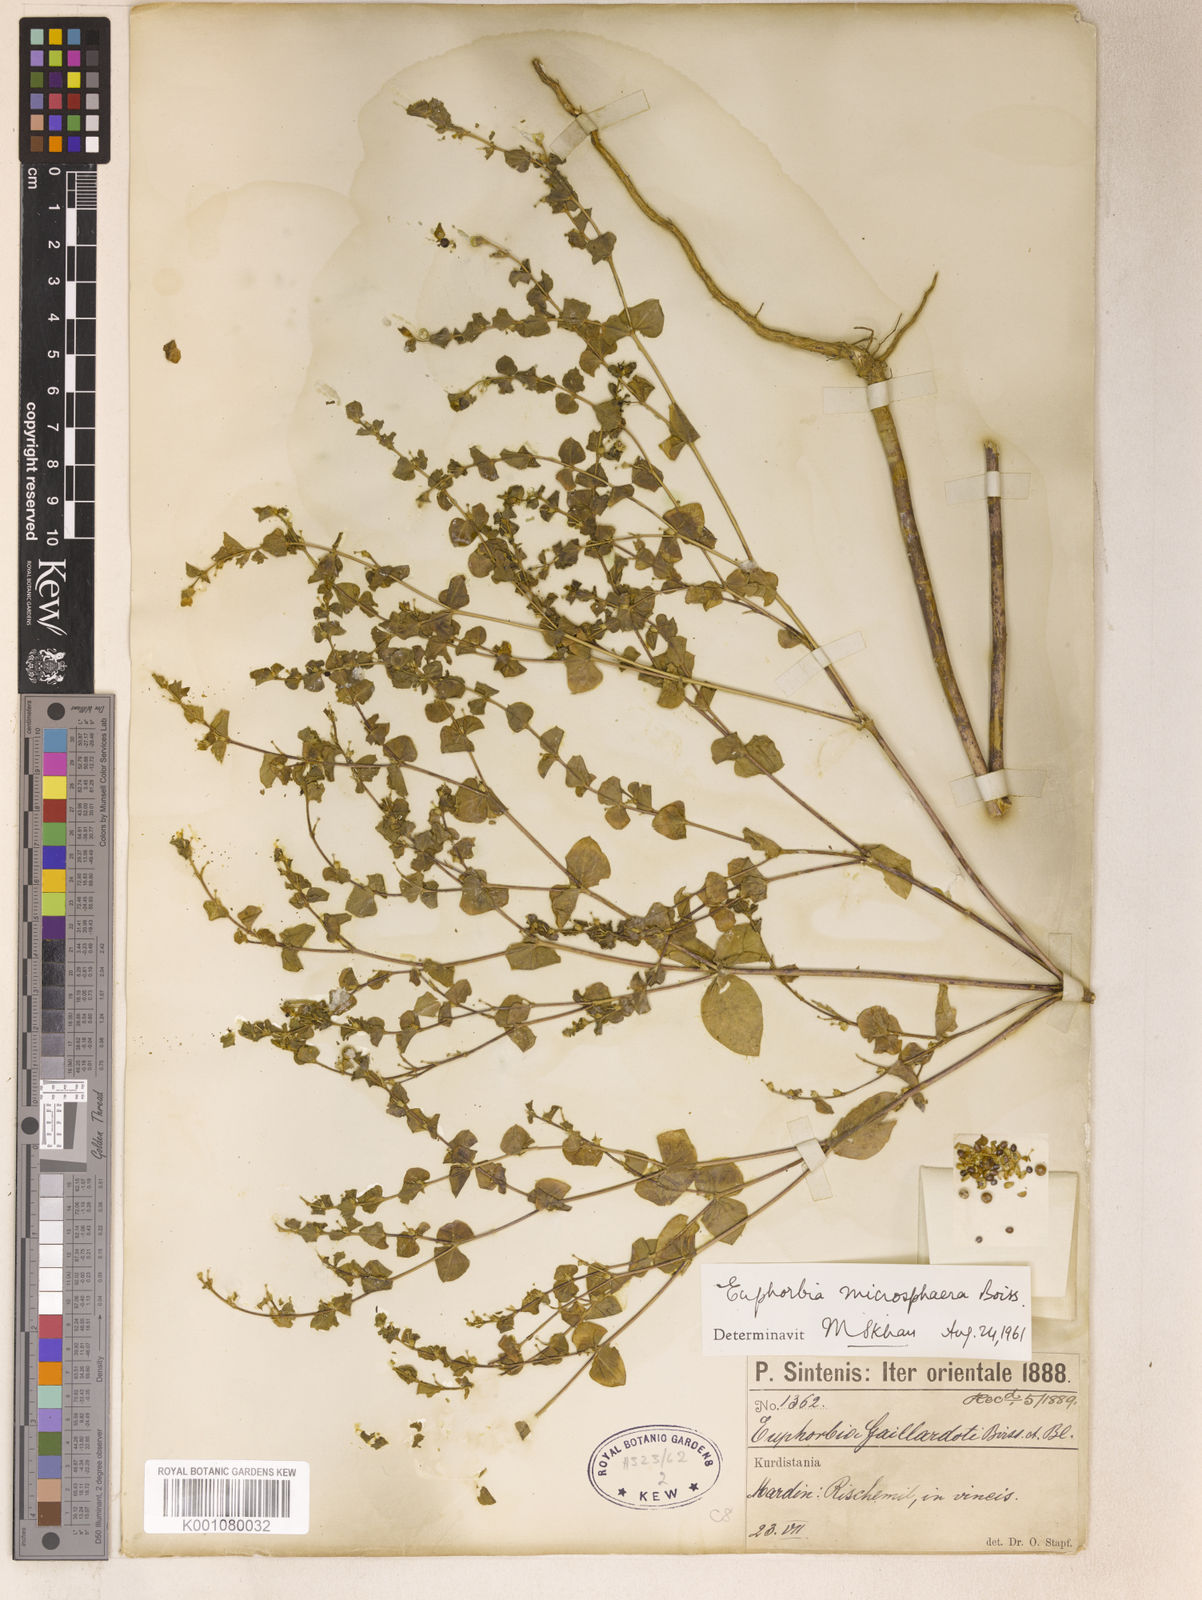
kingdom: Plantae
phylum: Tracheophyta
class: Magnoliopsida
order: Malpighiales
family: Euphorbiaceae
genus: Euphorbia
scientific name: Euphorbia microsphaera
